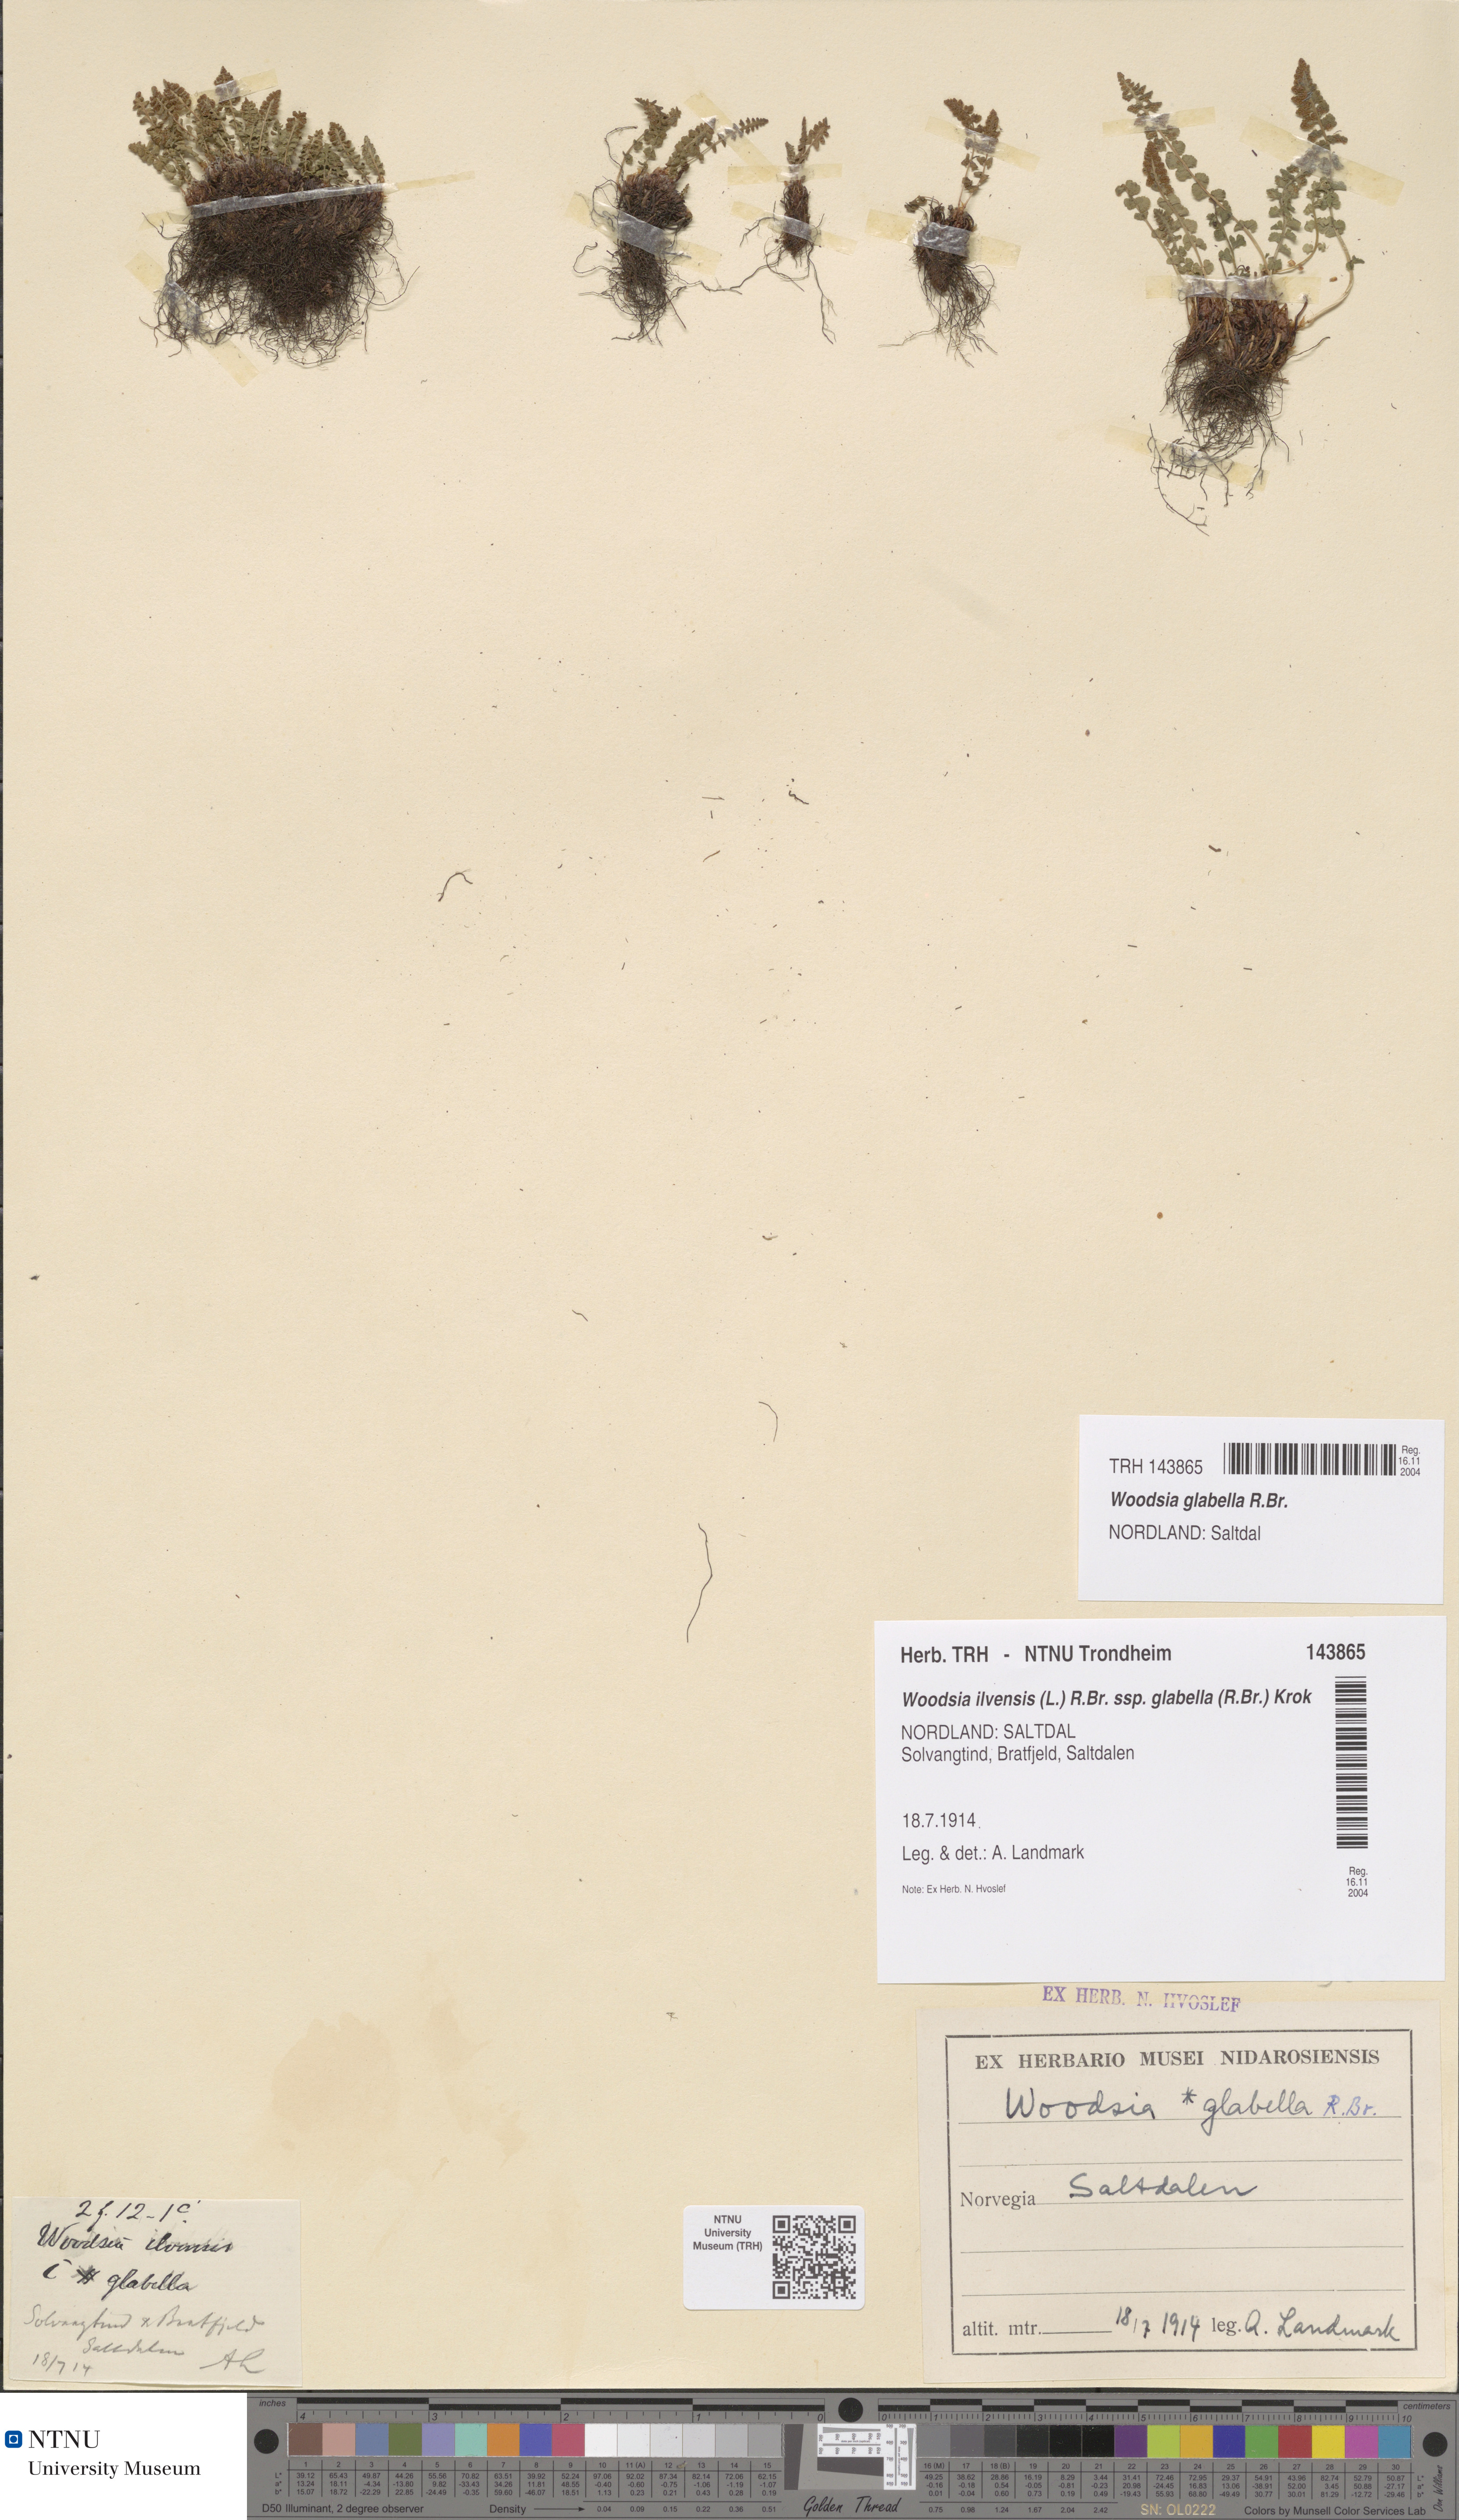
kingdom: Plantae
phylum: Tracheophyta
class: Polypodiopsida
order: Polypodiales
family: Woodsiaceae
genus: Woodsia
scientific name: Woodsia glabella
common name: Smooth woodsia
